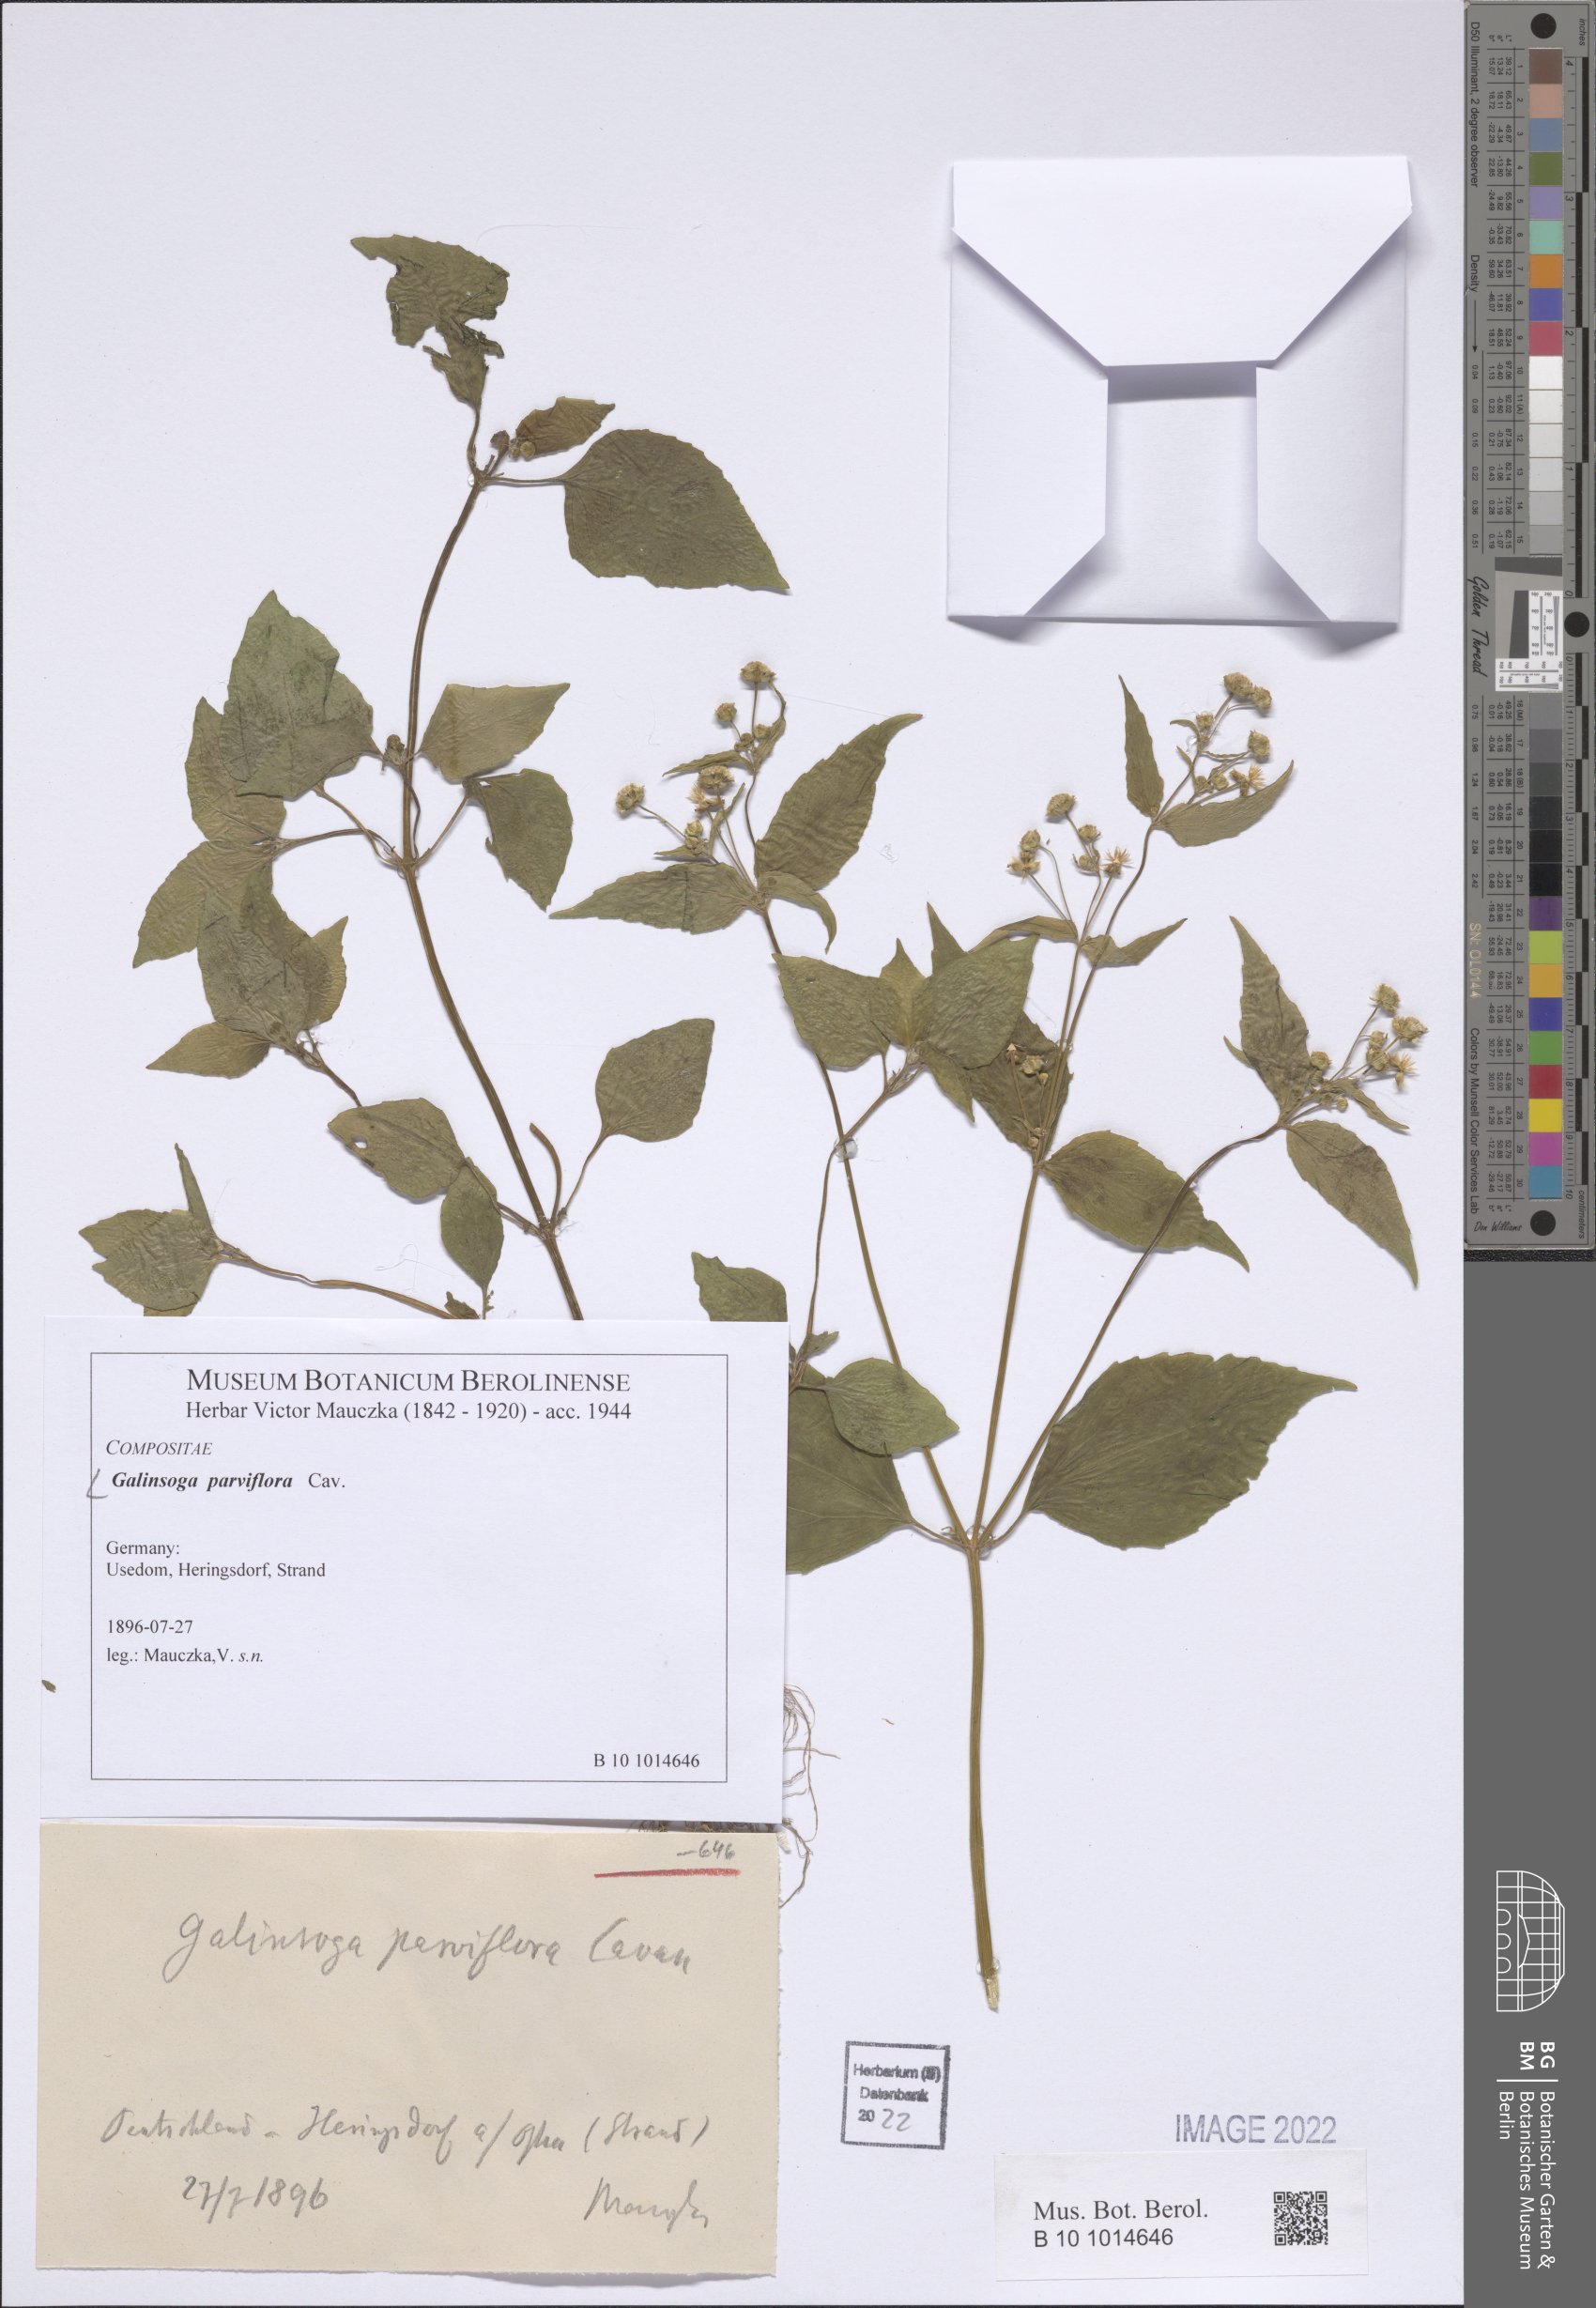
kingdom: Plantae
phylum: Tracheophyta
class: Magnoliopsida
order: Asterales
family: Asteraceae
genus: Galinsoga
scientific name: Galinsoga parviflora
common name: Gallant soldier
